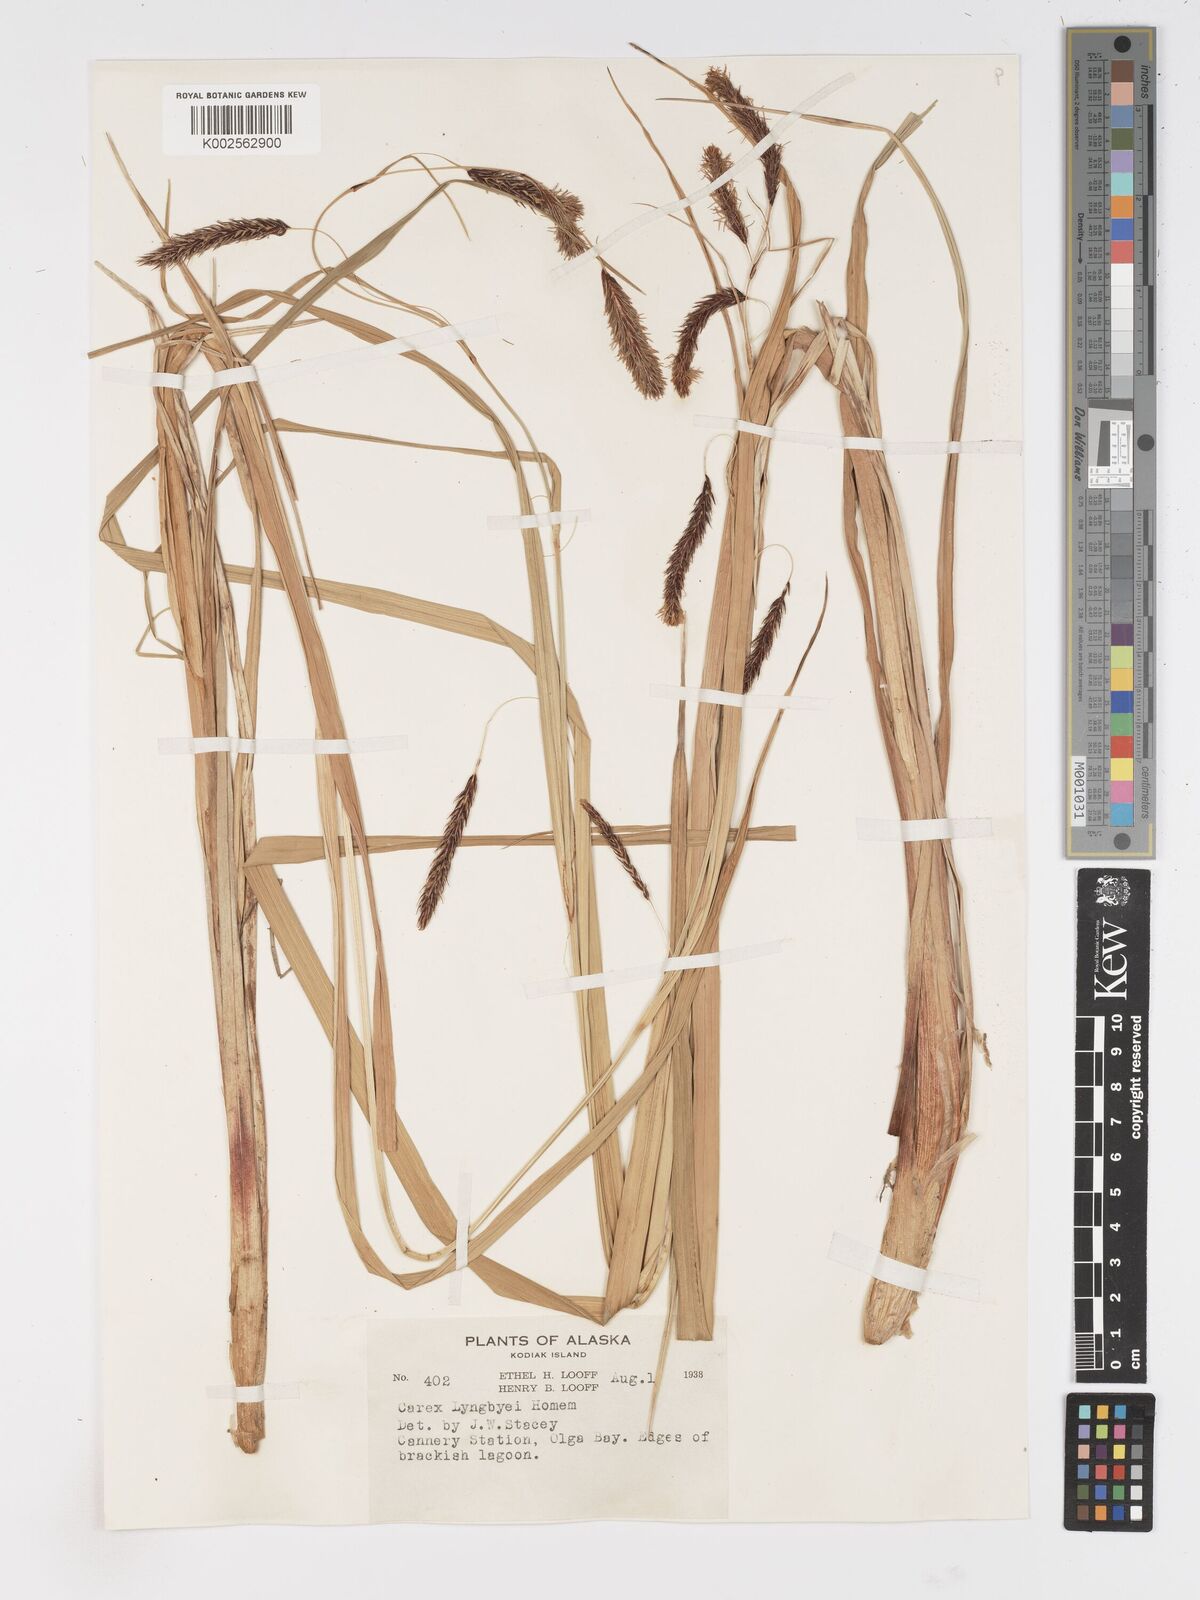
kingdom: Plantae
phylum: Tracheophyta
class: Liliopsida
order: Poales
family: Cyperaceae
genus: Carex
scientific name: Carex lyngbyei
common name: Lyngbye's sedge
